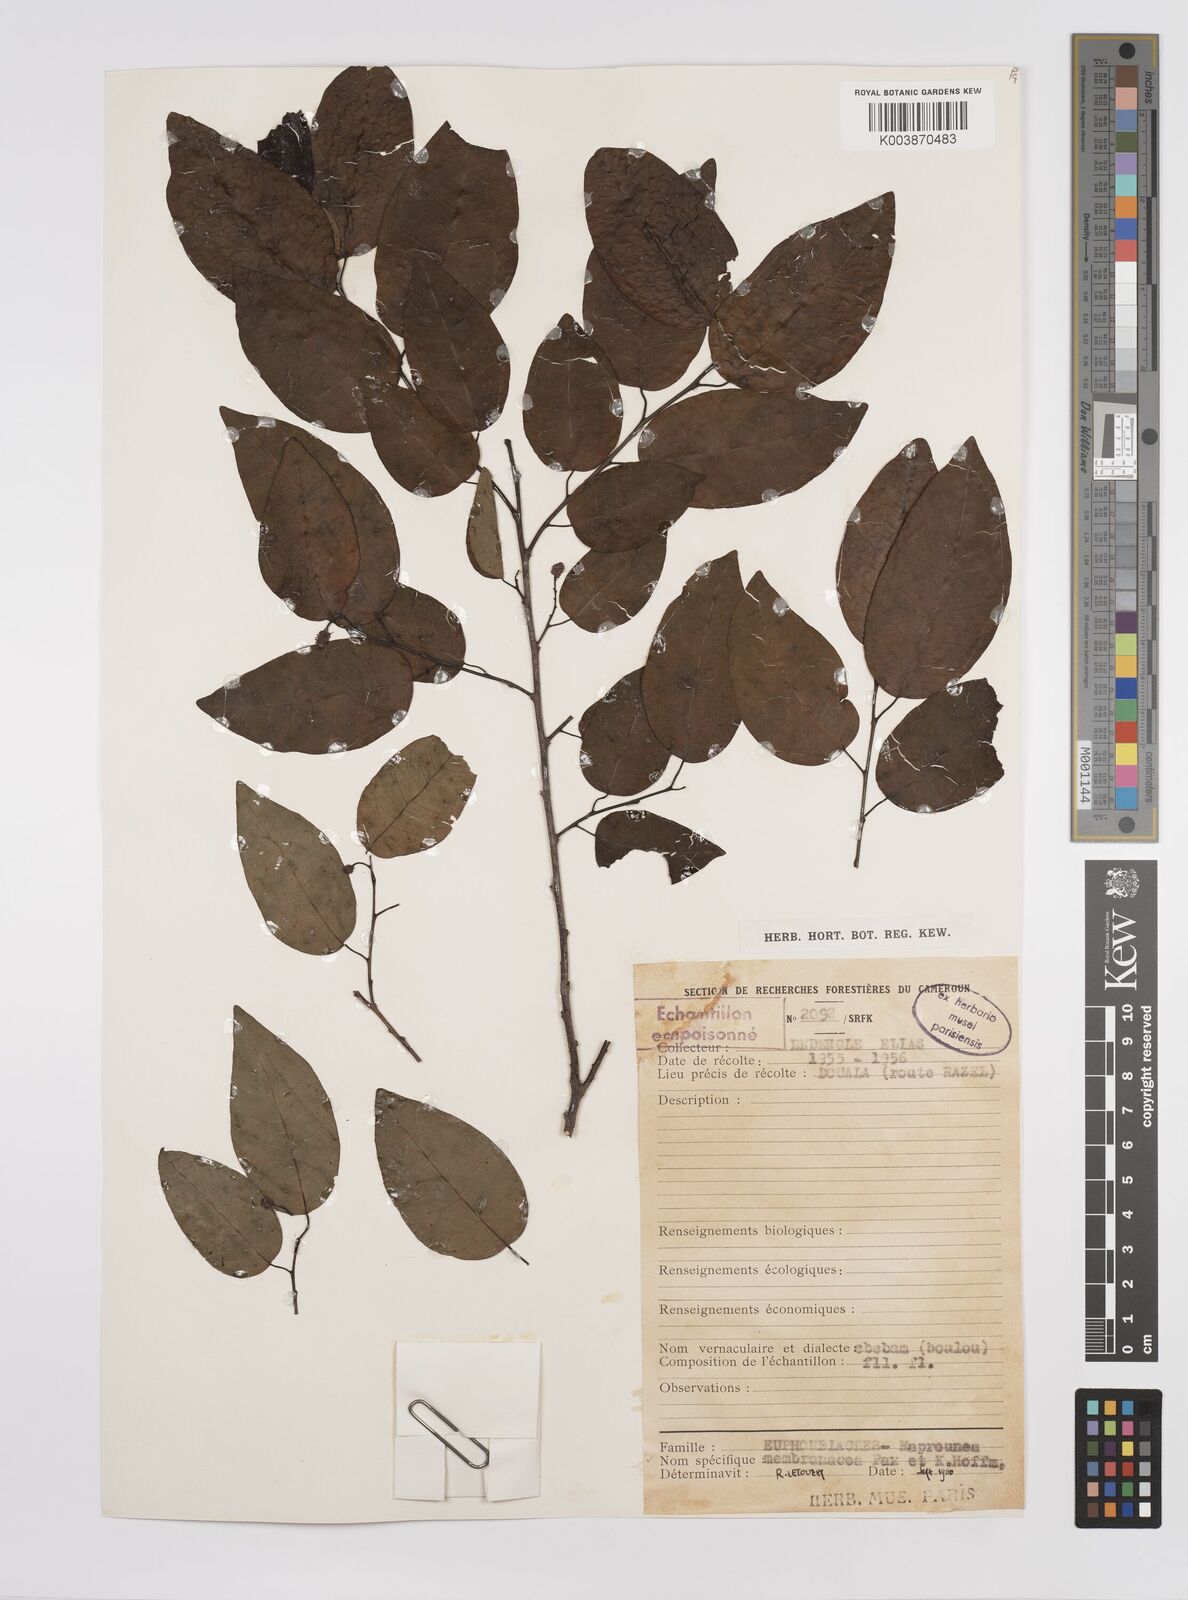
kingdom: Plantae
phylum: Tracheophyta
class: Magnoliopsida
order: Malpighiales
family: Euphorbiaceae
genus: Maprounea
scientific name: Maprounea membranacea
